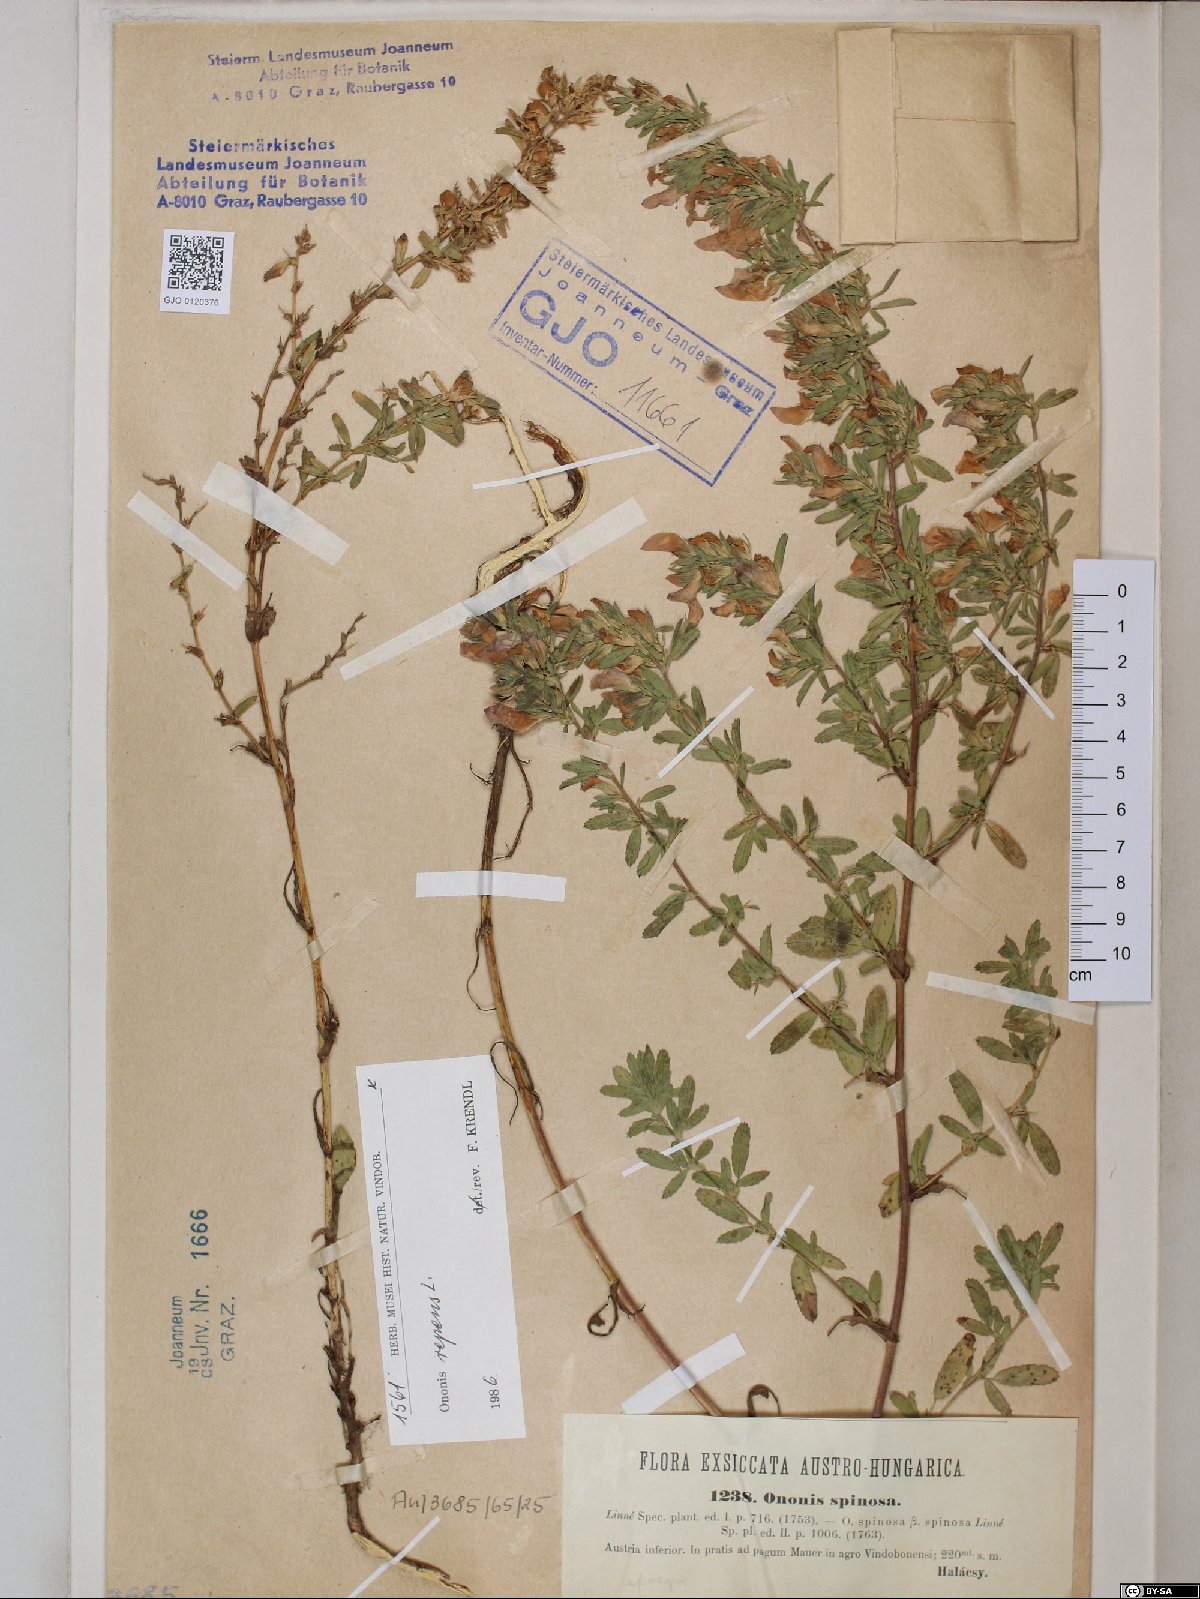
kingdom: Plantae
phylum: Tracheophyta
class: Magnoliopsida
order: Fabales
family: Fabaceae
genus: Ononis
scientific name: Ononis spinosa
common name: Spiny restharrow
